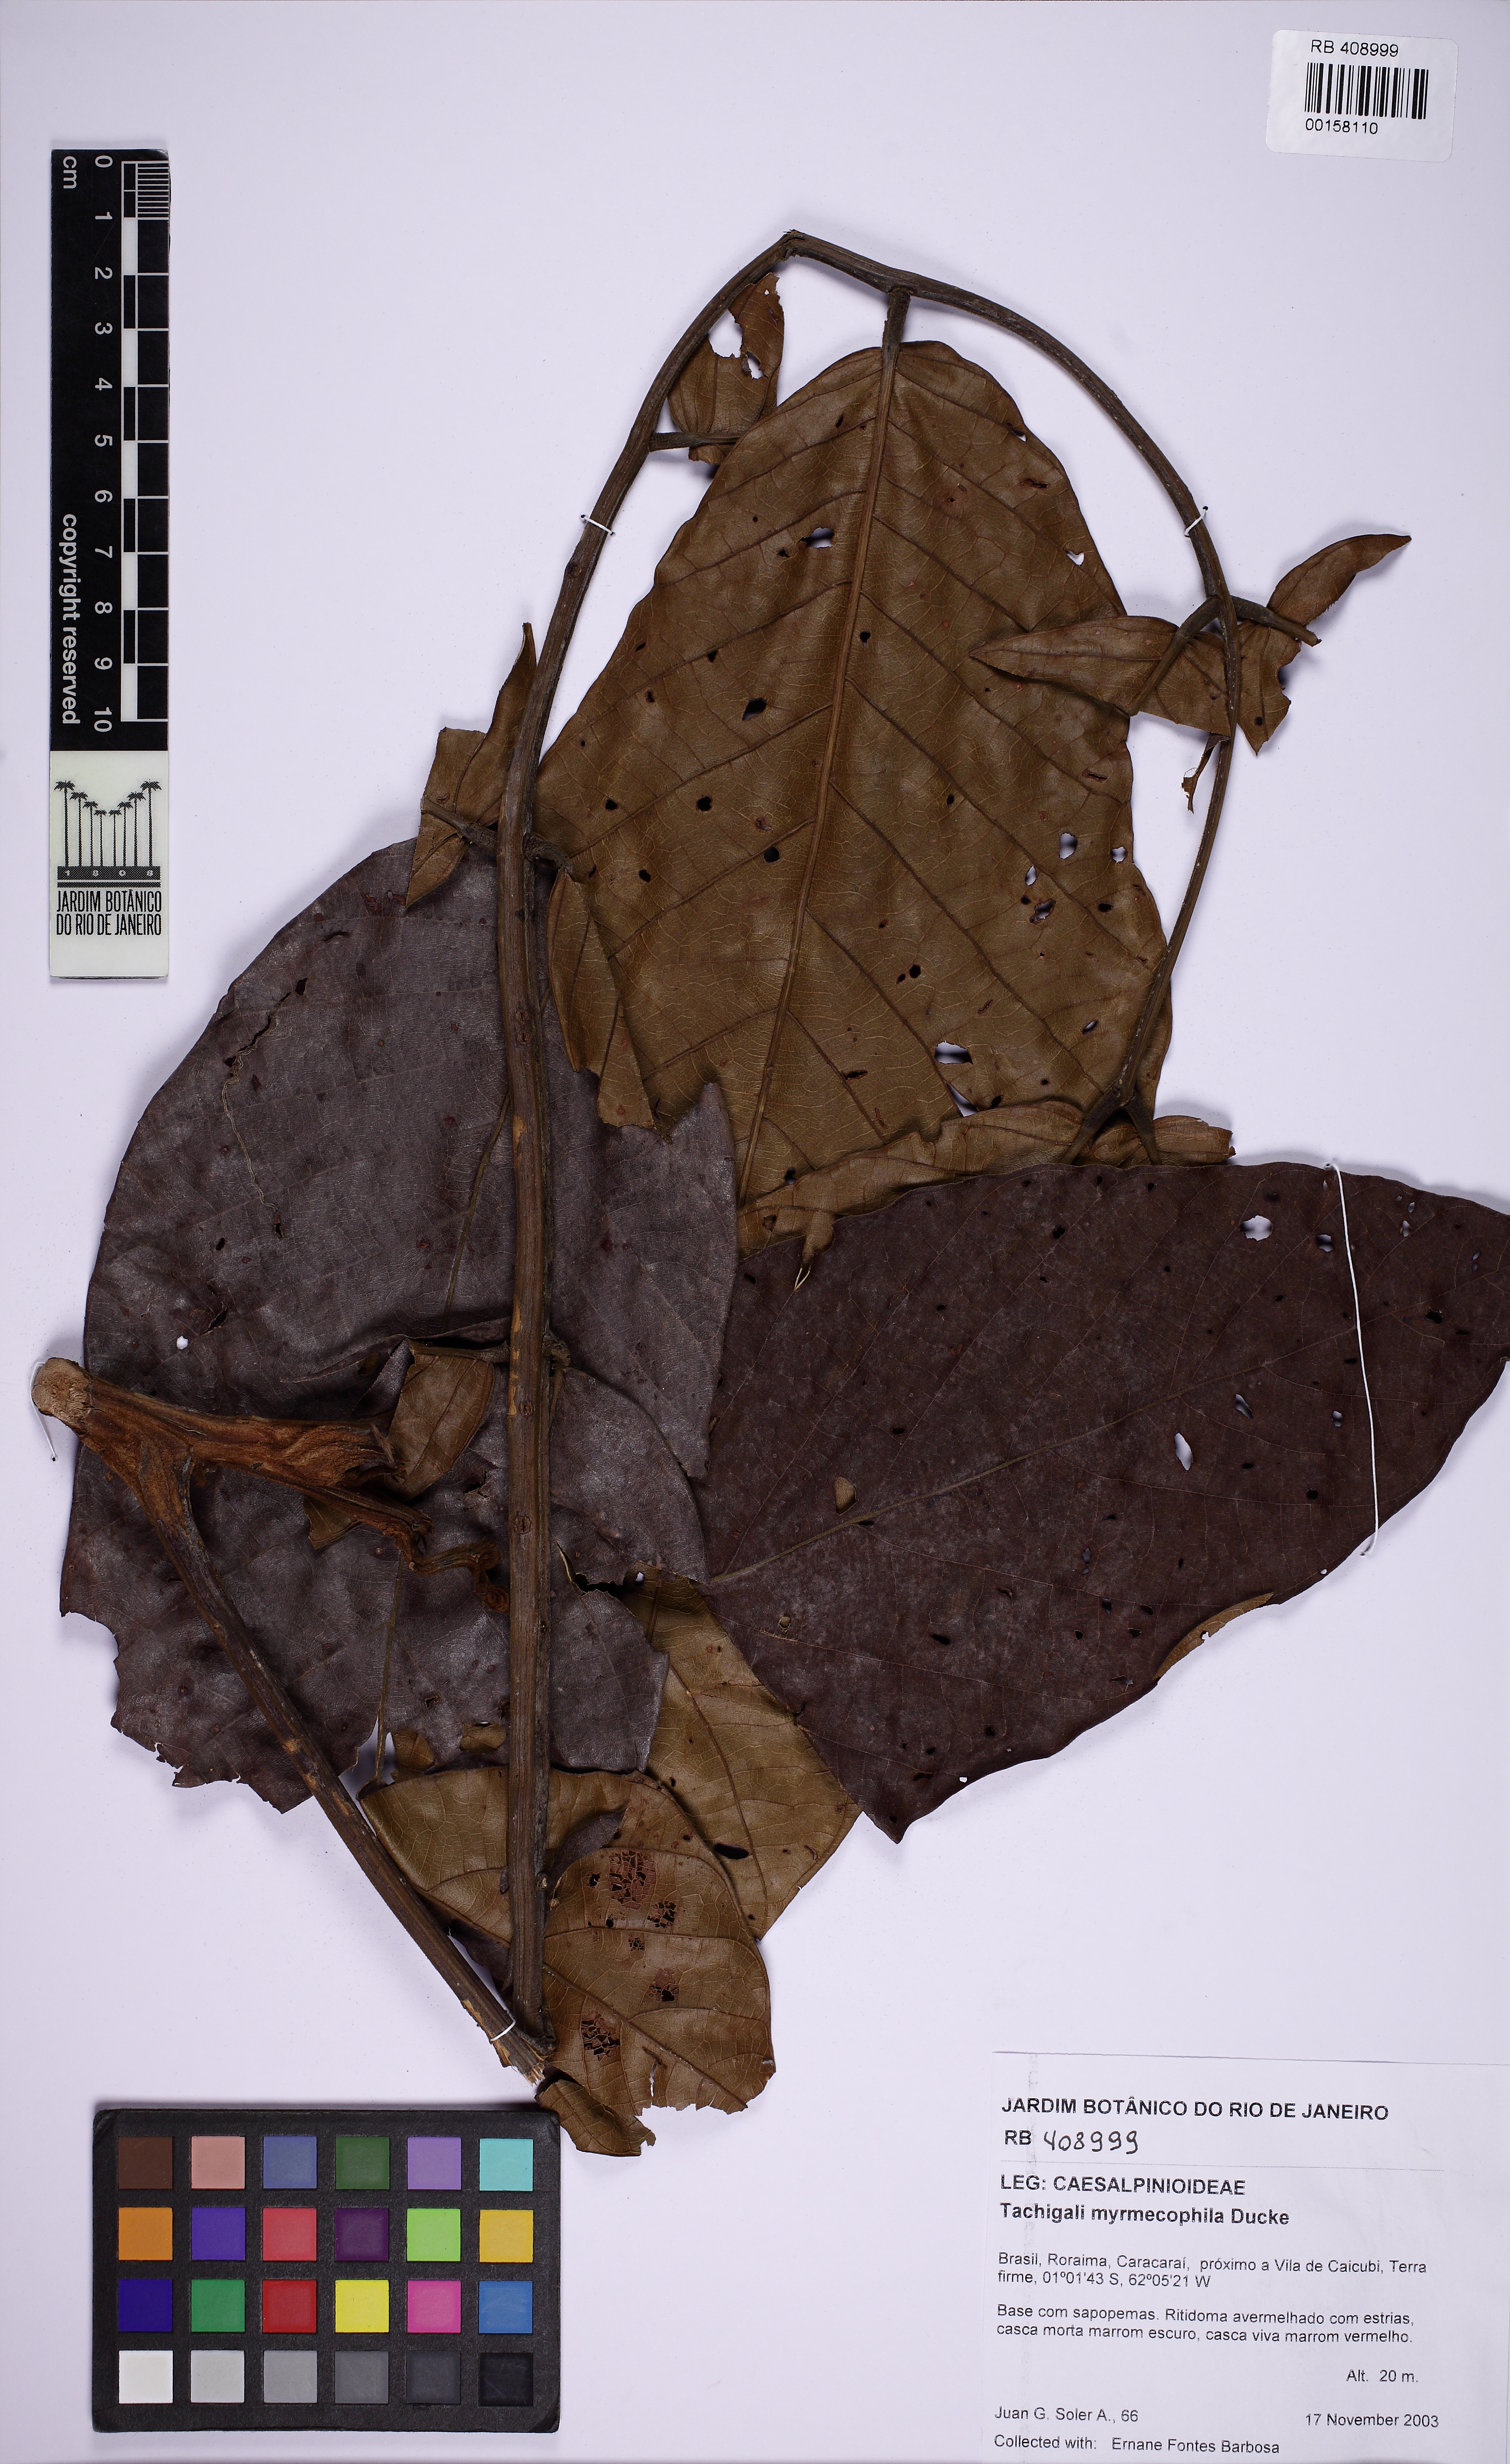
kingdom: Plantae
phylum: Tracheophyta
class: Magnoliopsida
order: Fabales
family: Fabaceae
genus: Tachigali
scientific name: Tachigali amplifolia
